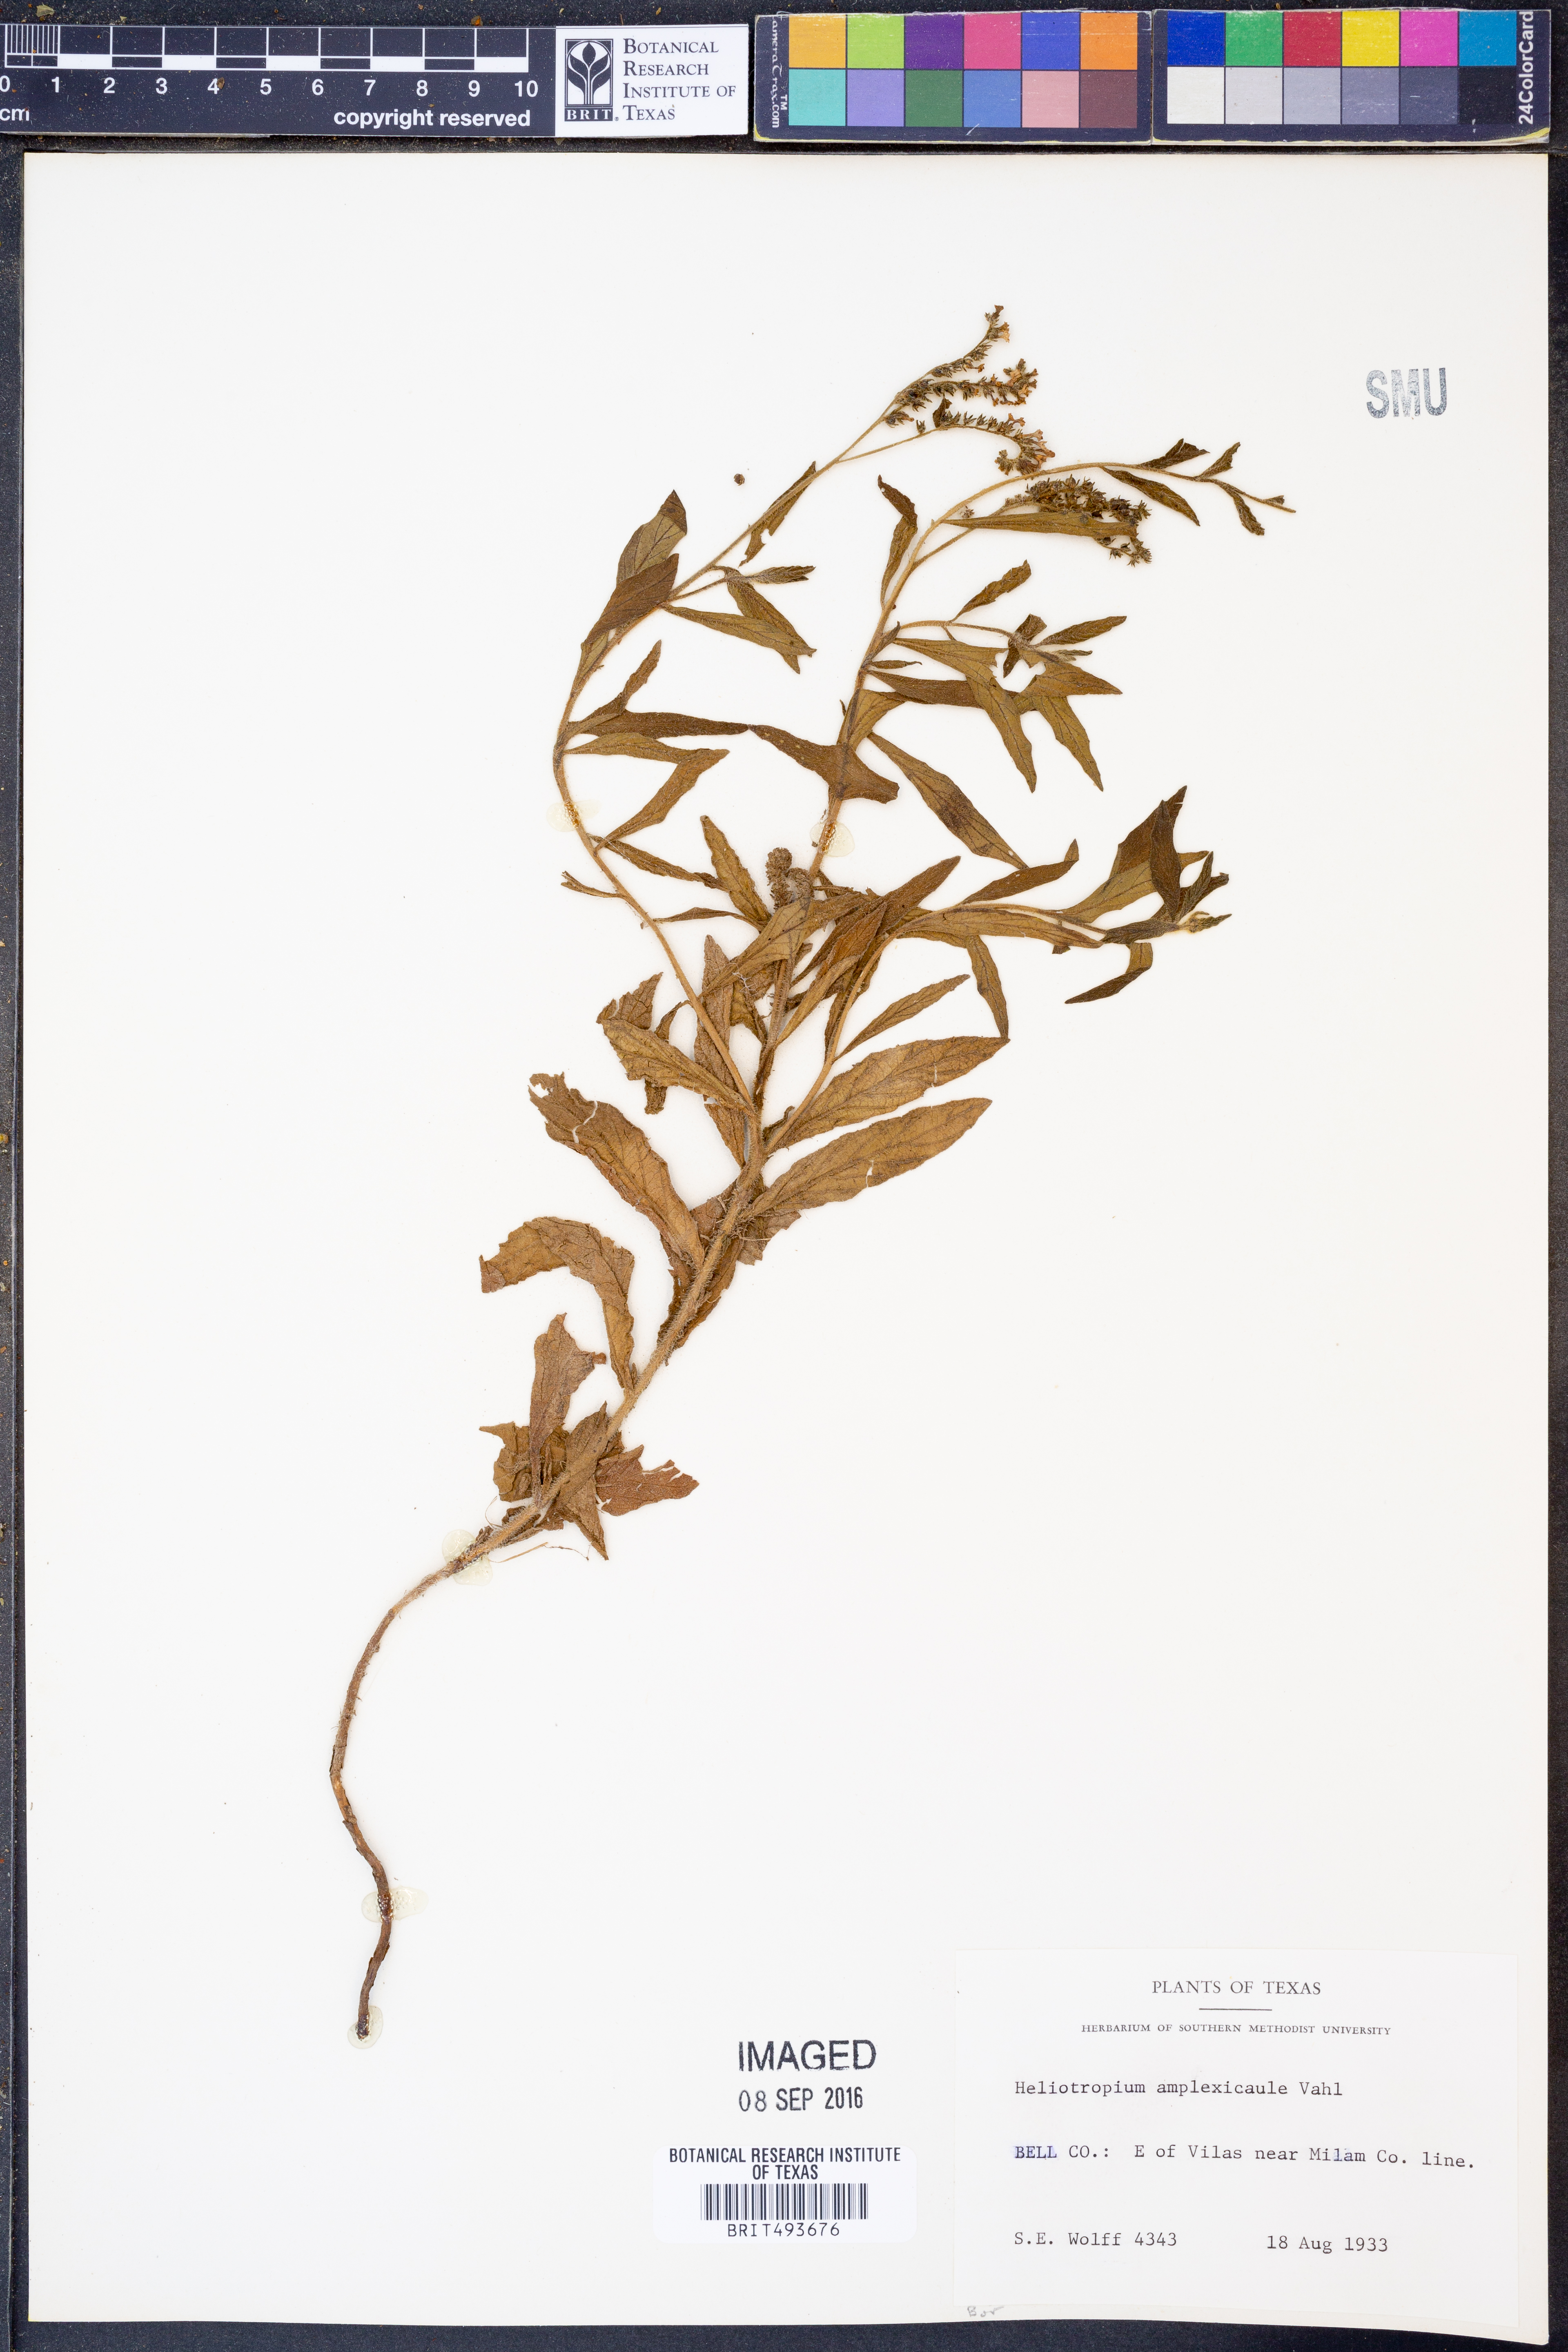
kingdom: Plantae
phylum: Tracheophyta
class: Magnoliopsida
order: Boraginales
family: Heliotropiaceae
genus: Heliotropium
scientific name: Heliotropium amplexicaule
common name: Clasping heliotrope
